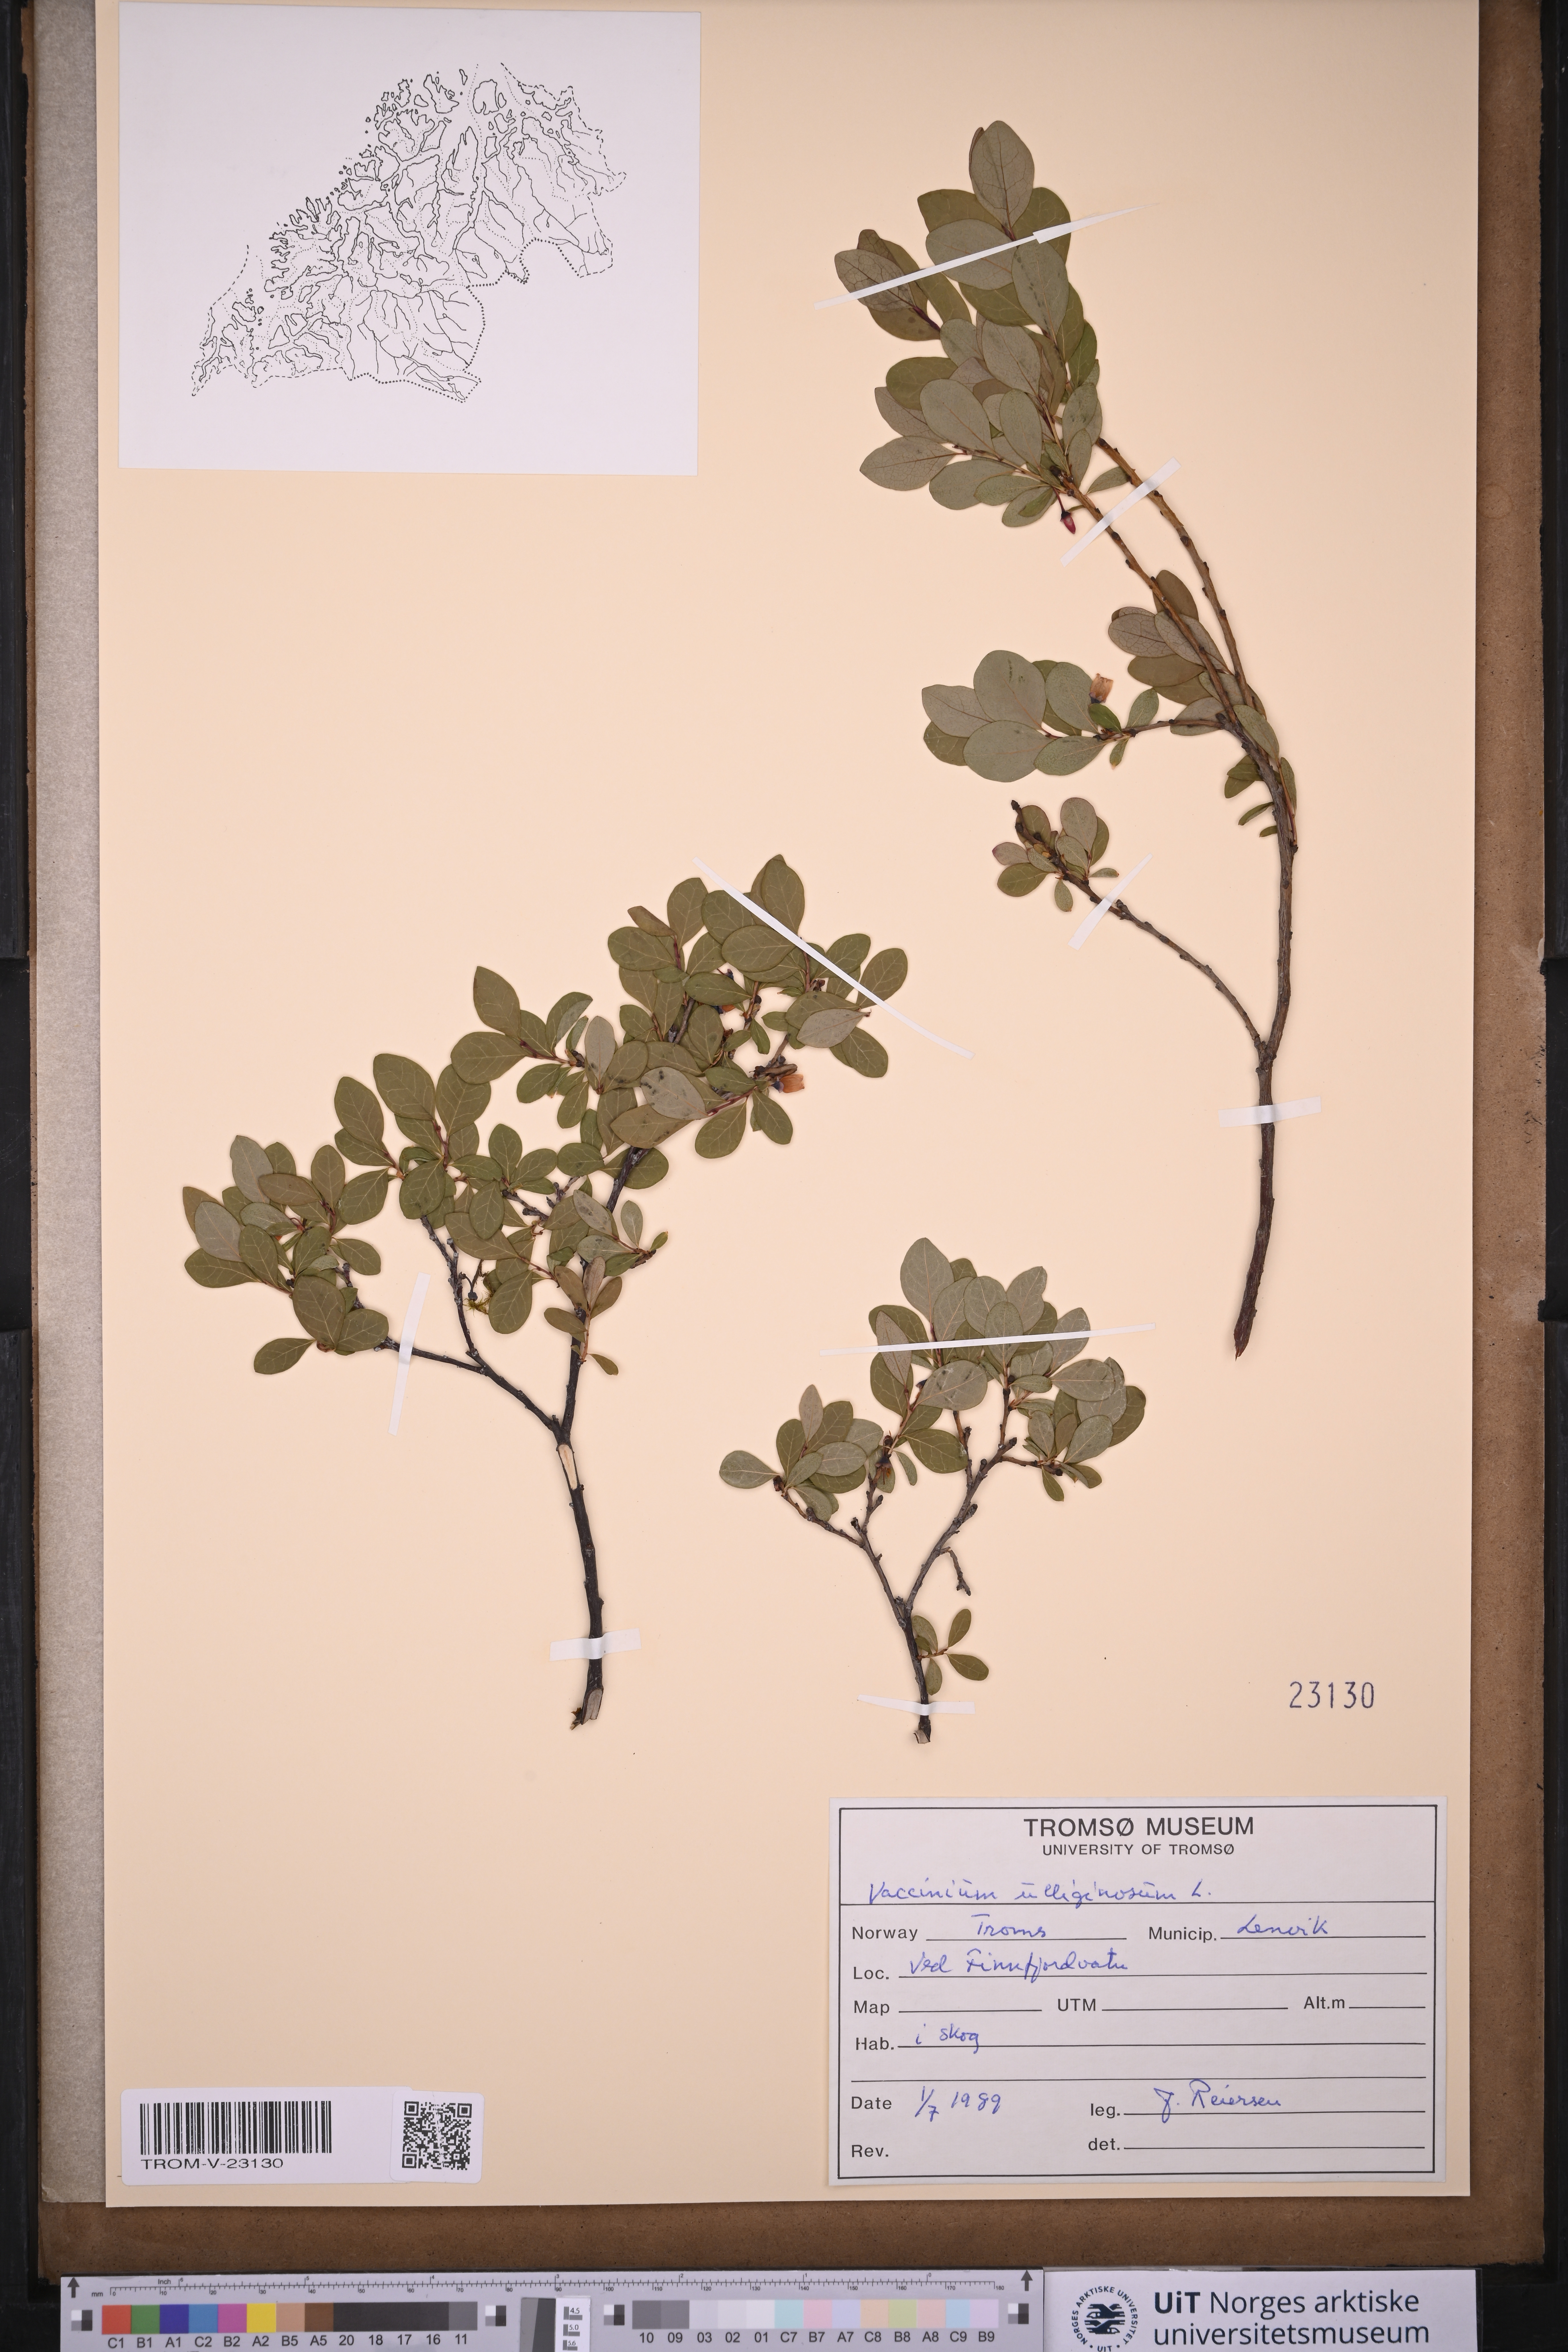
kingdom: Plantae
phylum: Tracheophyta
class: Magnoliopsida
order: Ericales
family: Ericaceae
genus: Vaccinium
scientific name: Vaccinium uliginosum
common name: Bog bilberry
